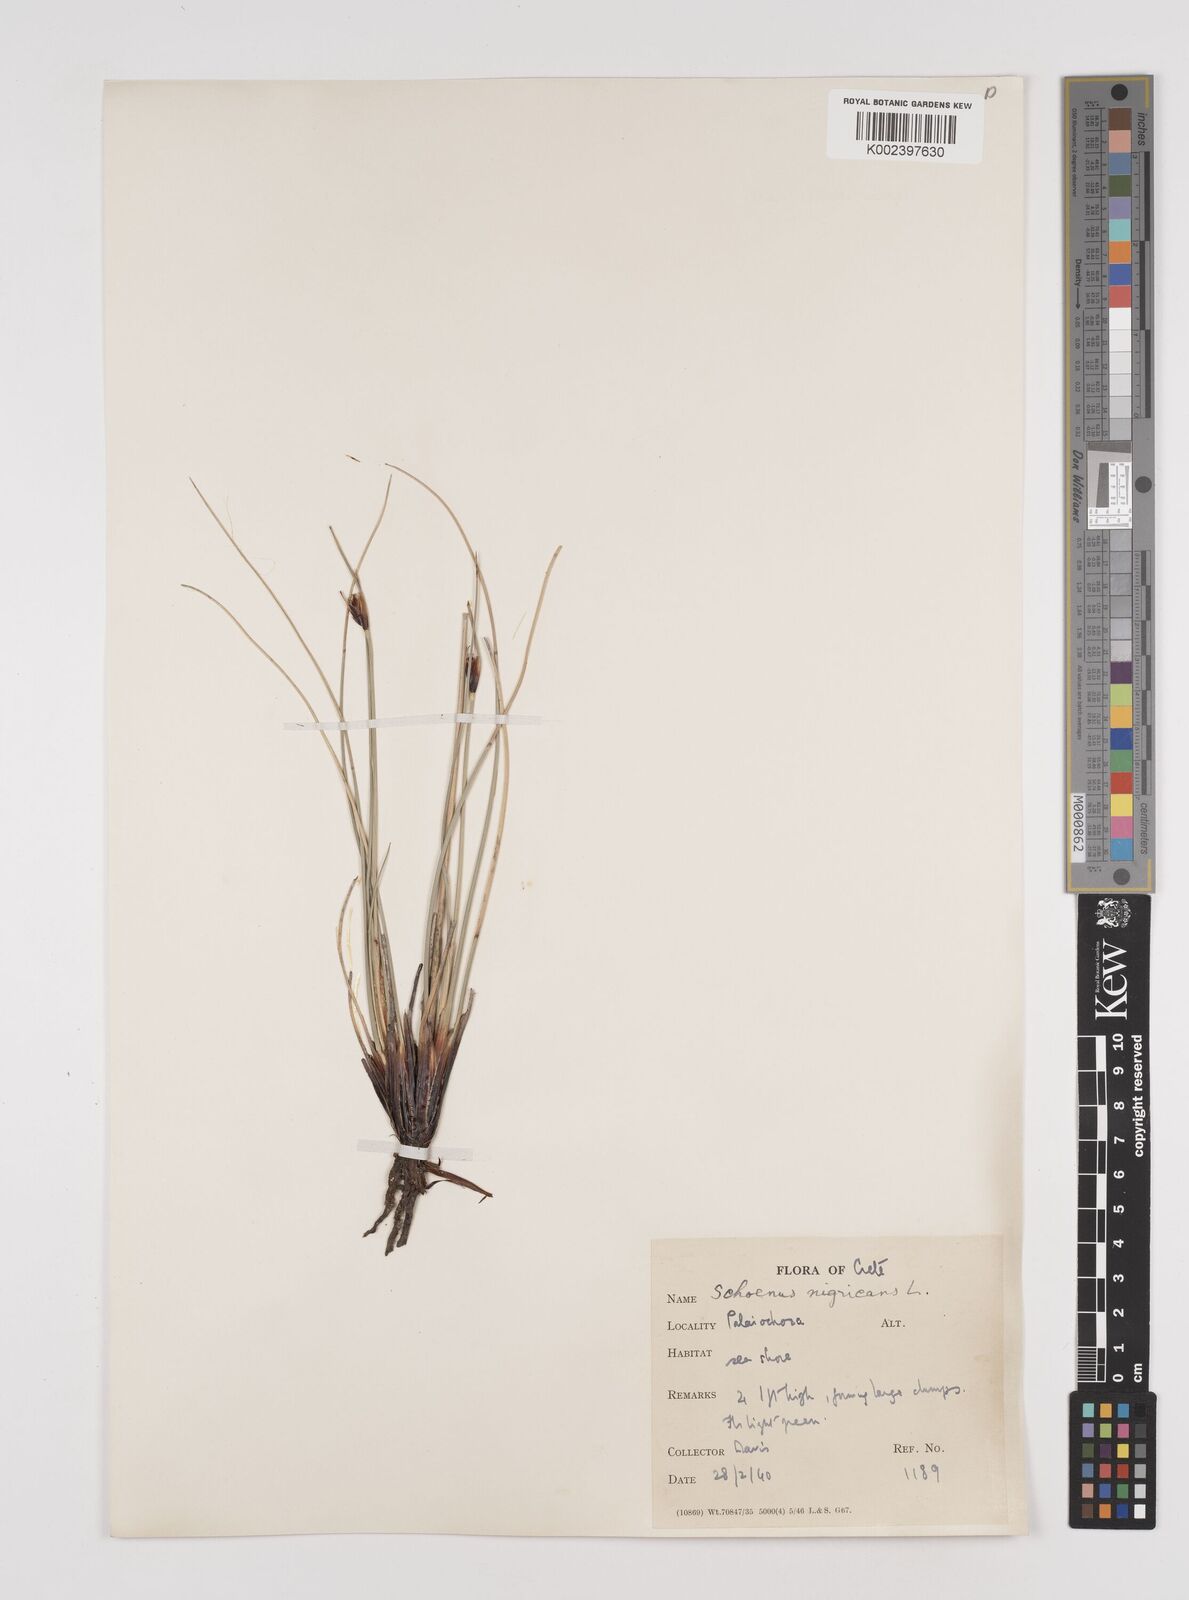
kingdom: Plantae
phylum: Tracheophyta
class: Liliopsida
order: Poales
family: Cyperaceae
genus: Schoenus
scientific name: Schoenus nigricans
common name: Black bog-rush
